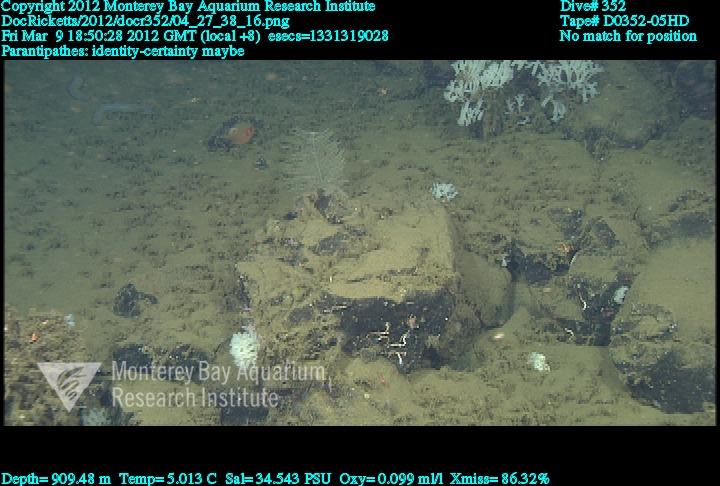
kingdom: Animalia
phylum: Cnidaria
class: Anthozoa
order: Antipatharia
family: Schizopathidae
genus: Parantipathes
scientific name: Parantipathes
